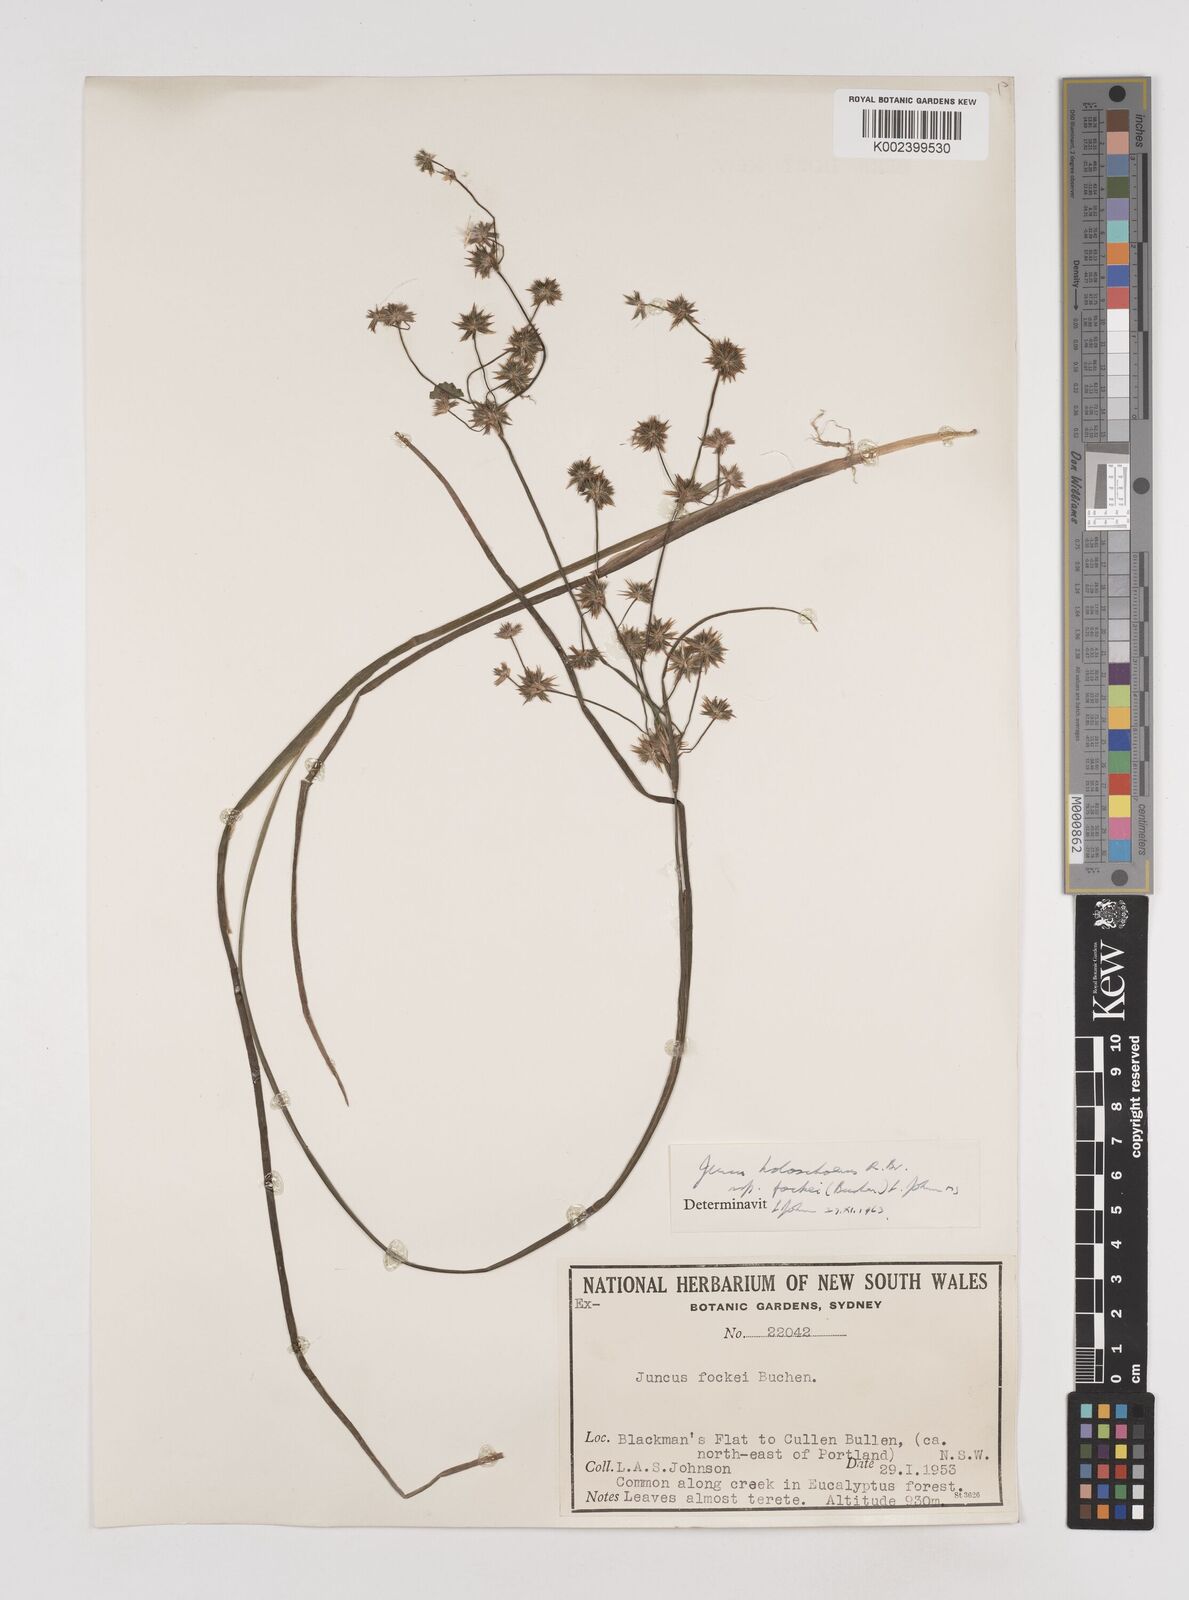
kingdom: Plantae
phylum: Tracheophyta
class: Liliopsida
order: Poales
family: Juncaceae
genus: Juncus
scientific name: Juncus holoschoenus
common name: Joint-leaf rush
